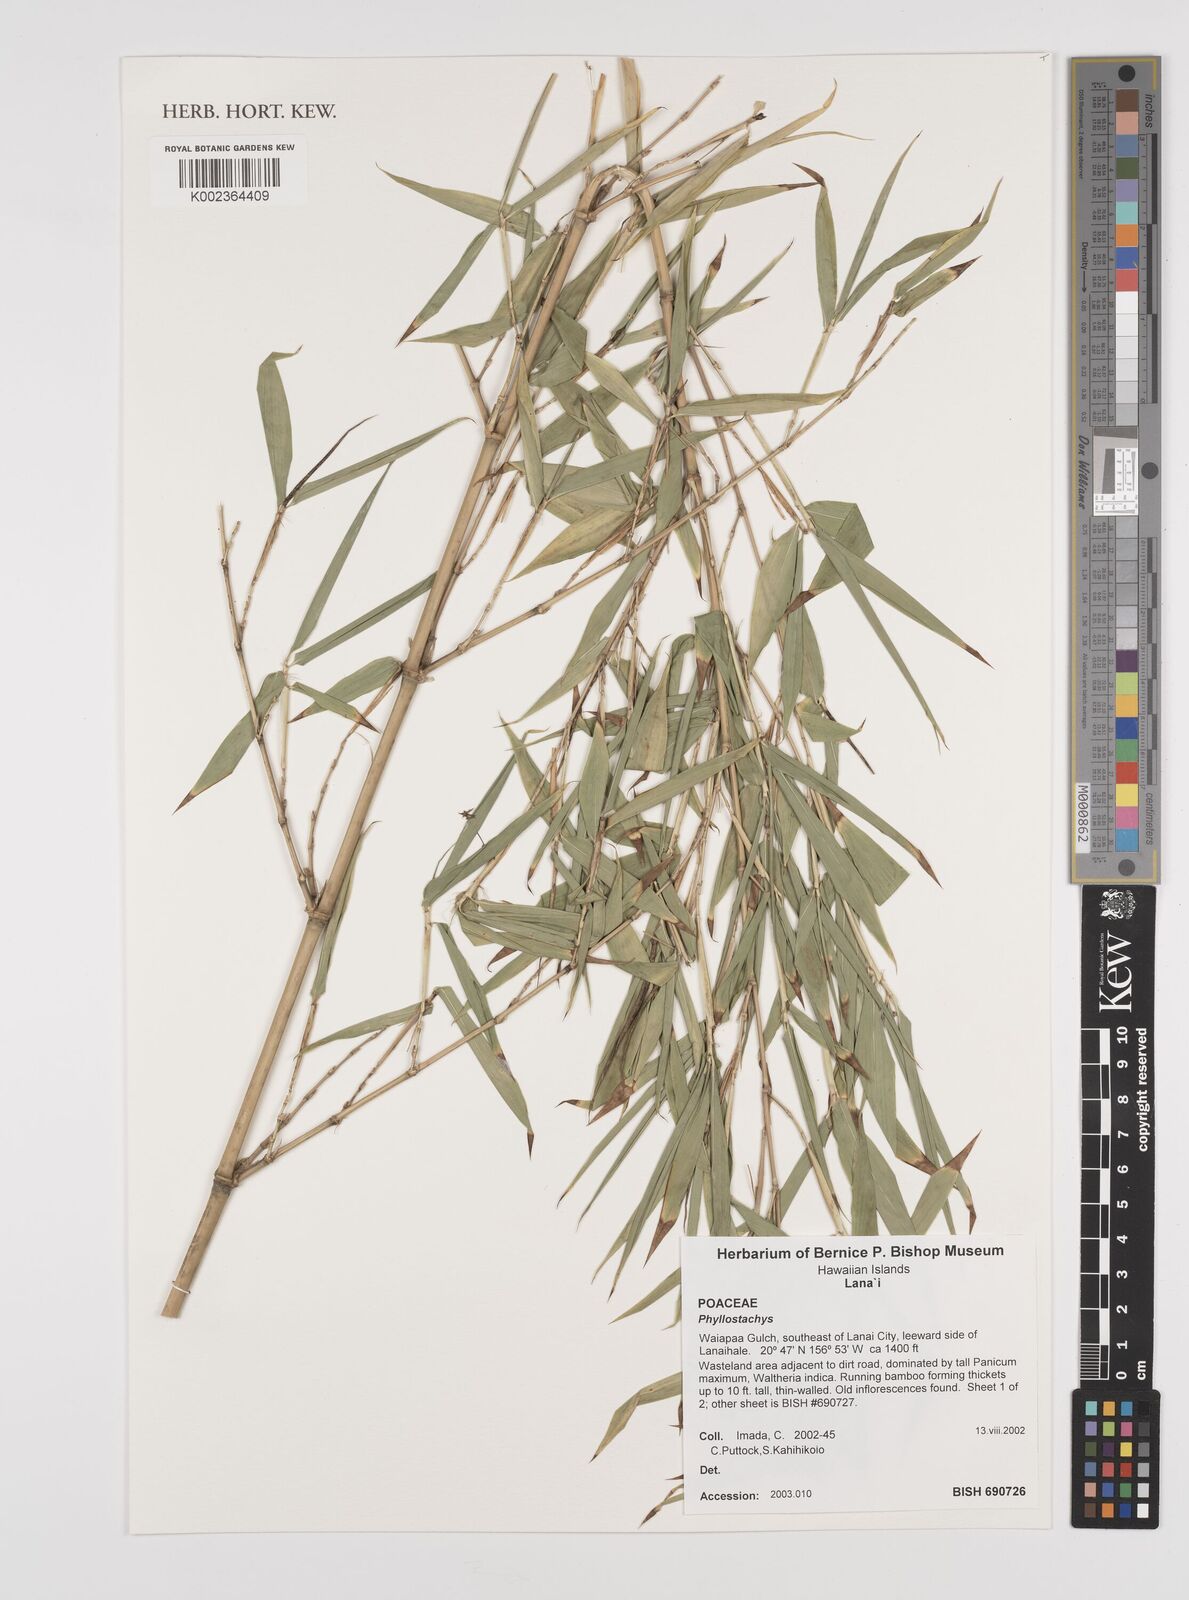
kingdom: Plantae
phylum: Tracheophyta
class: Liliopsida
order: Poales
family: Poaceae
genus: Phyllostachys
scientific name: Phyllostachys
